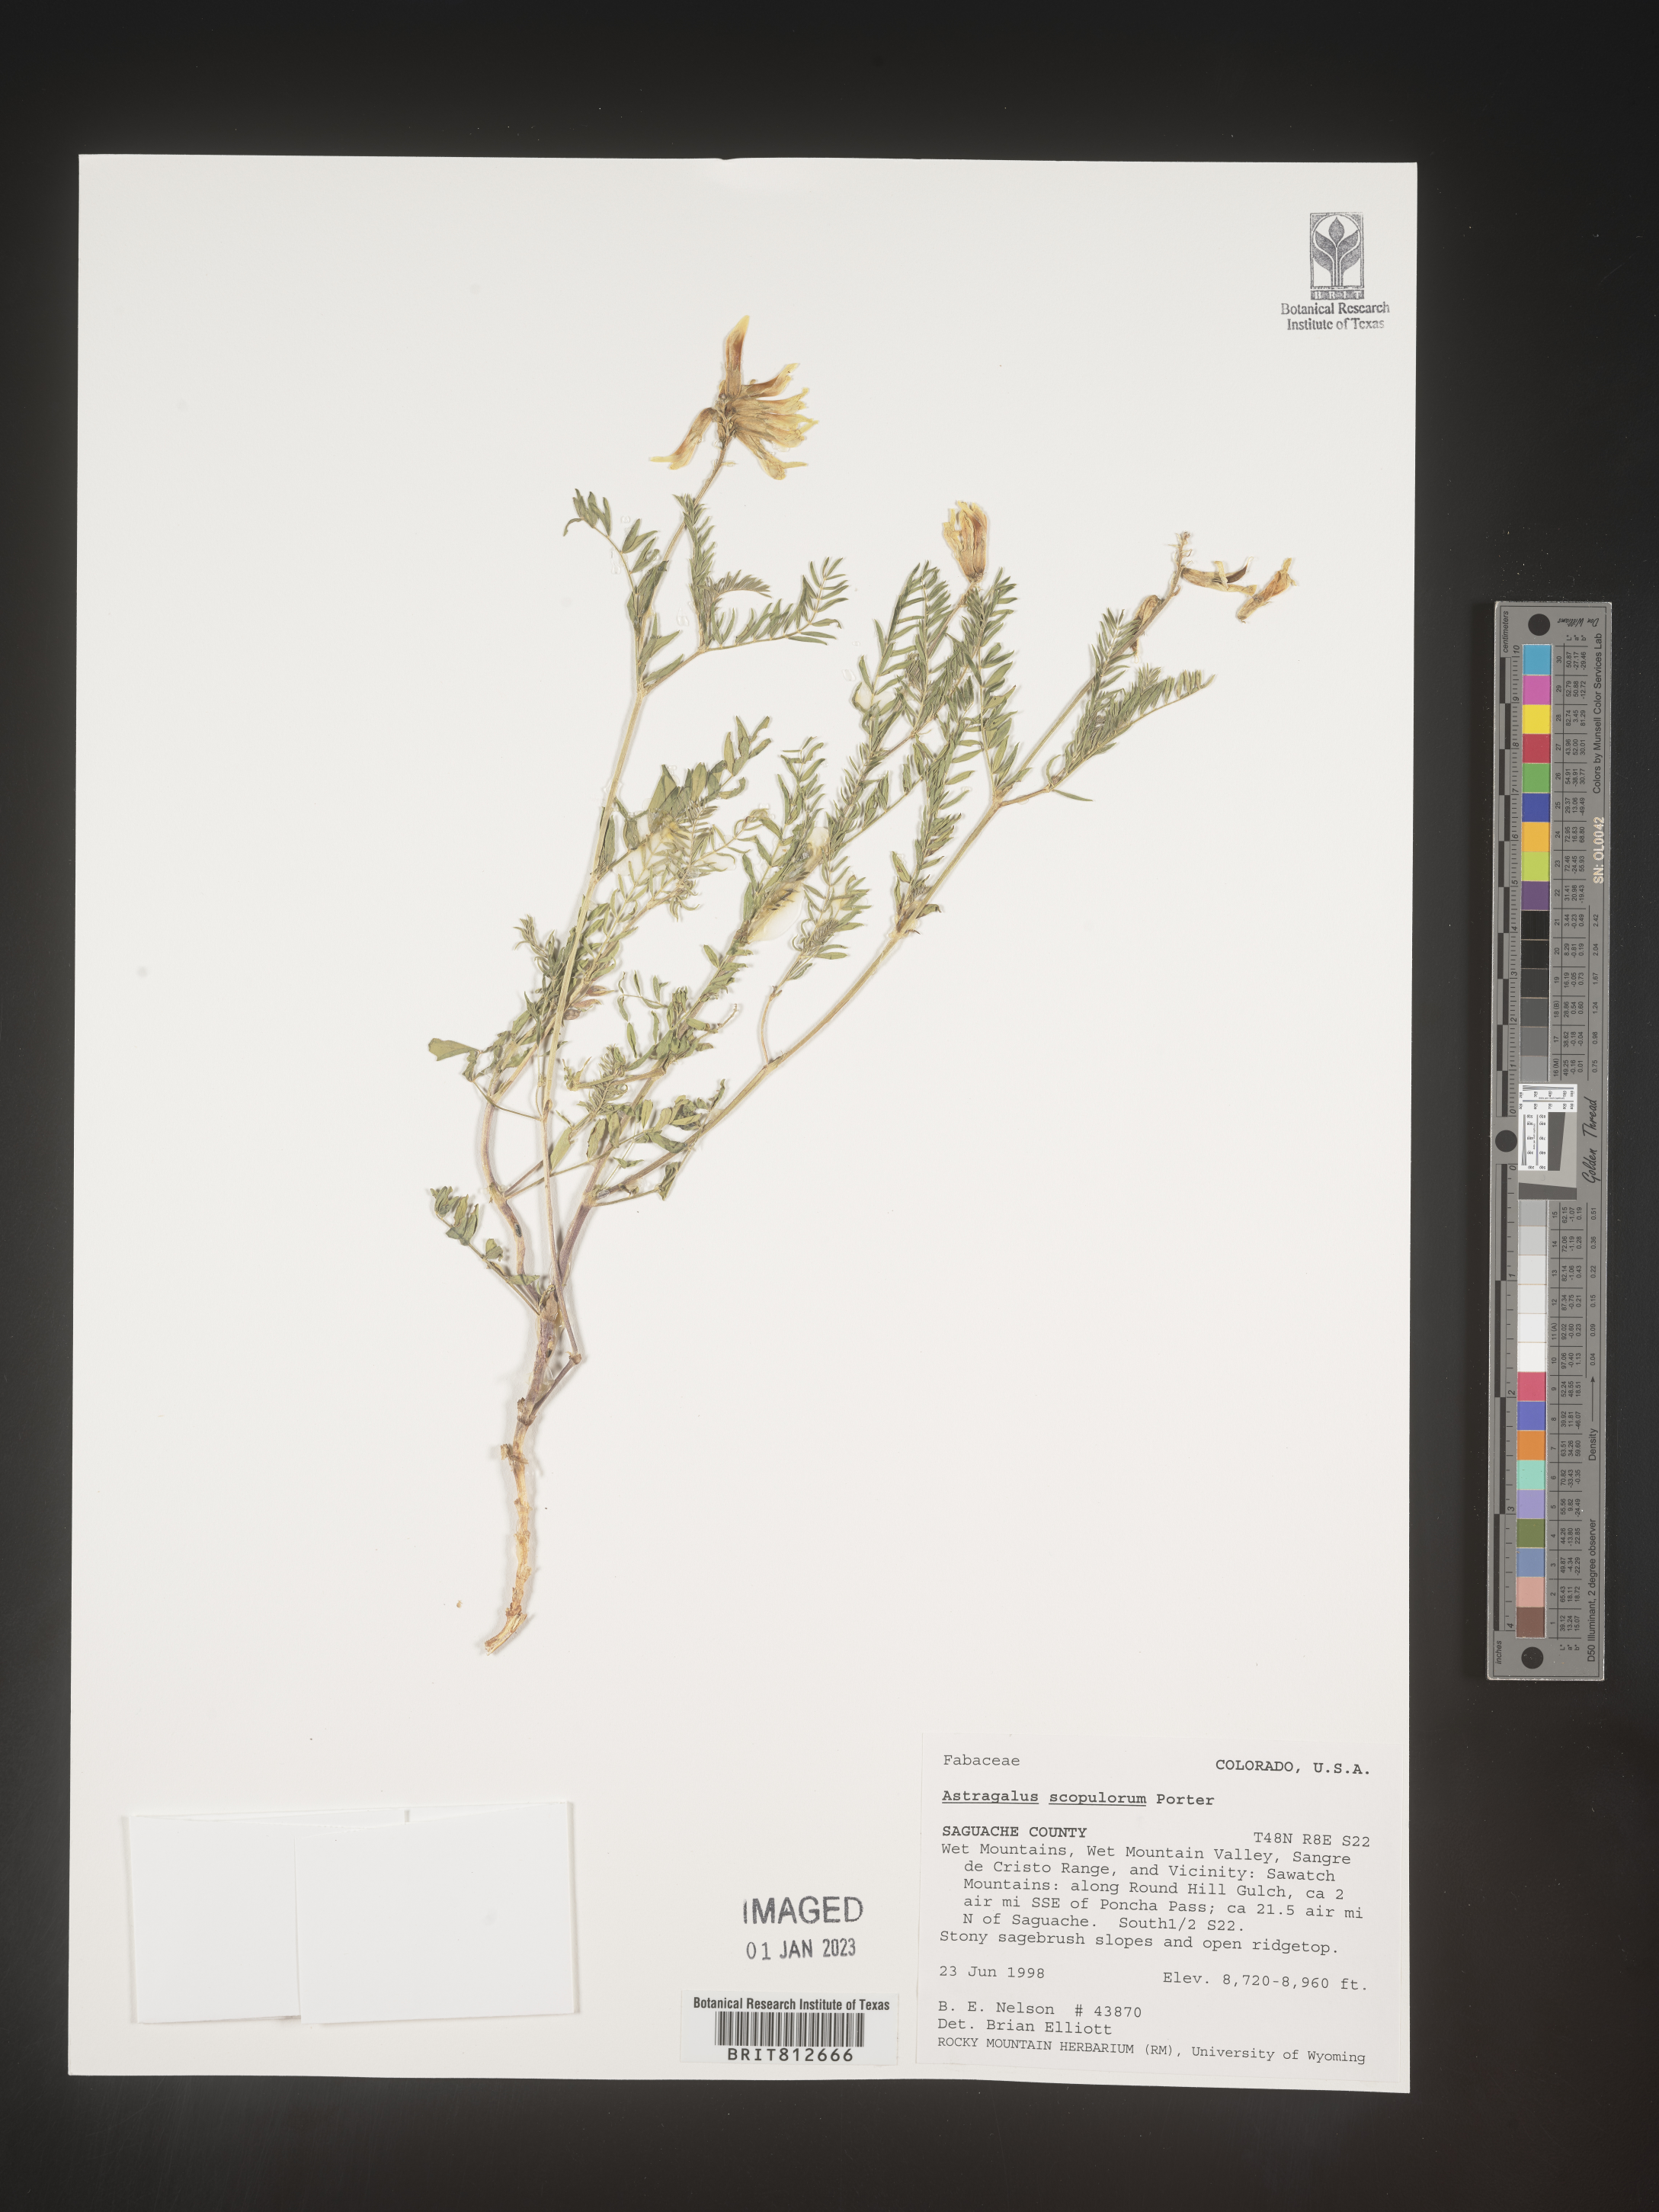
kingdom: Plantae
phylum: Tracheophyta
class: Magnoliopsida
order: Fabales
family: Fabaceae
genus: Astragalus
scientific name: Astragalus
